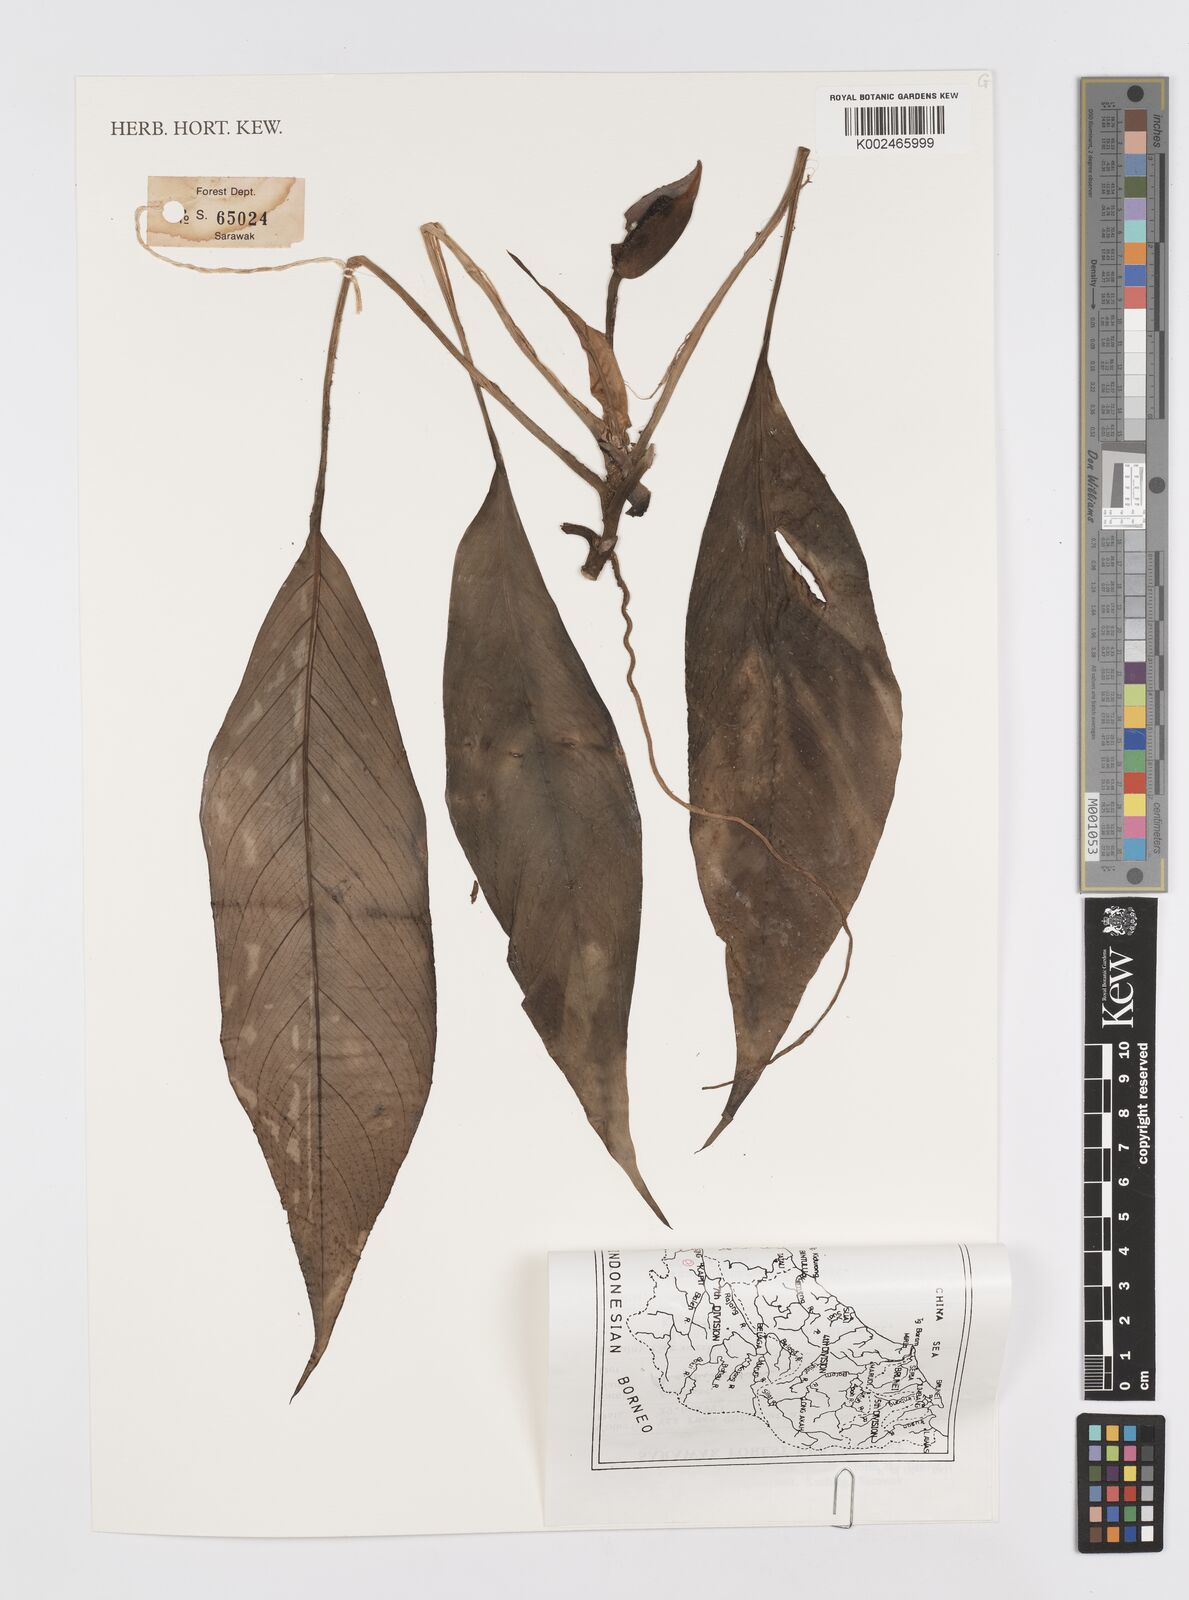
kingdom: Plantae
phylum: Tracheophyta
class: Liliopsida
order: Alismatales
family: Araceae
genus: Rhaphidophora
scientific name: Rhaphidophora
